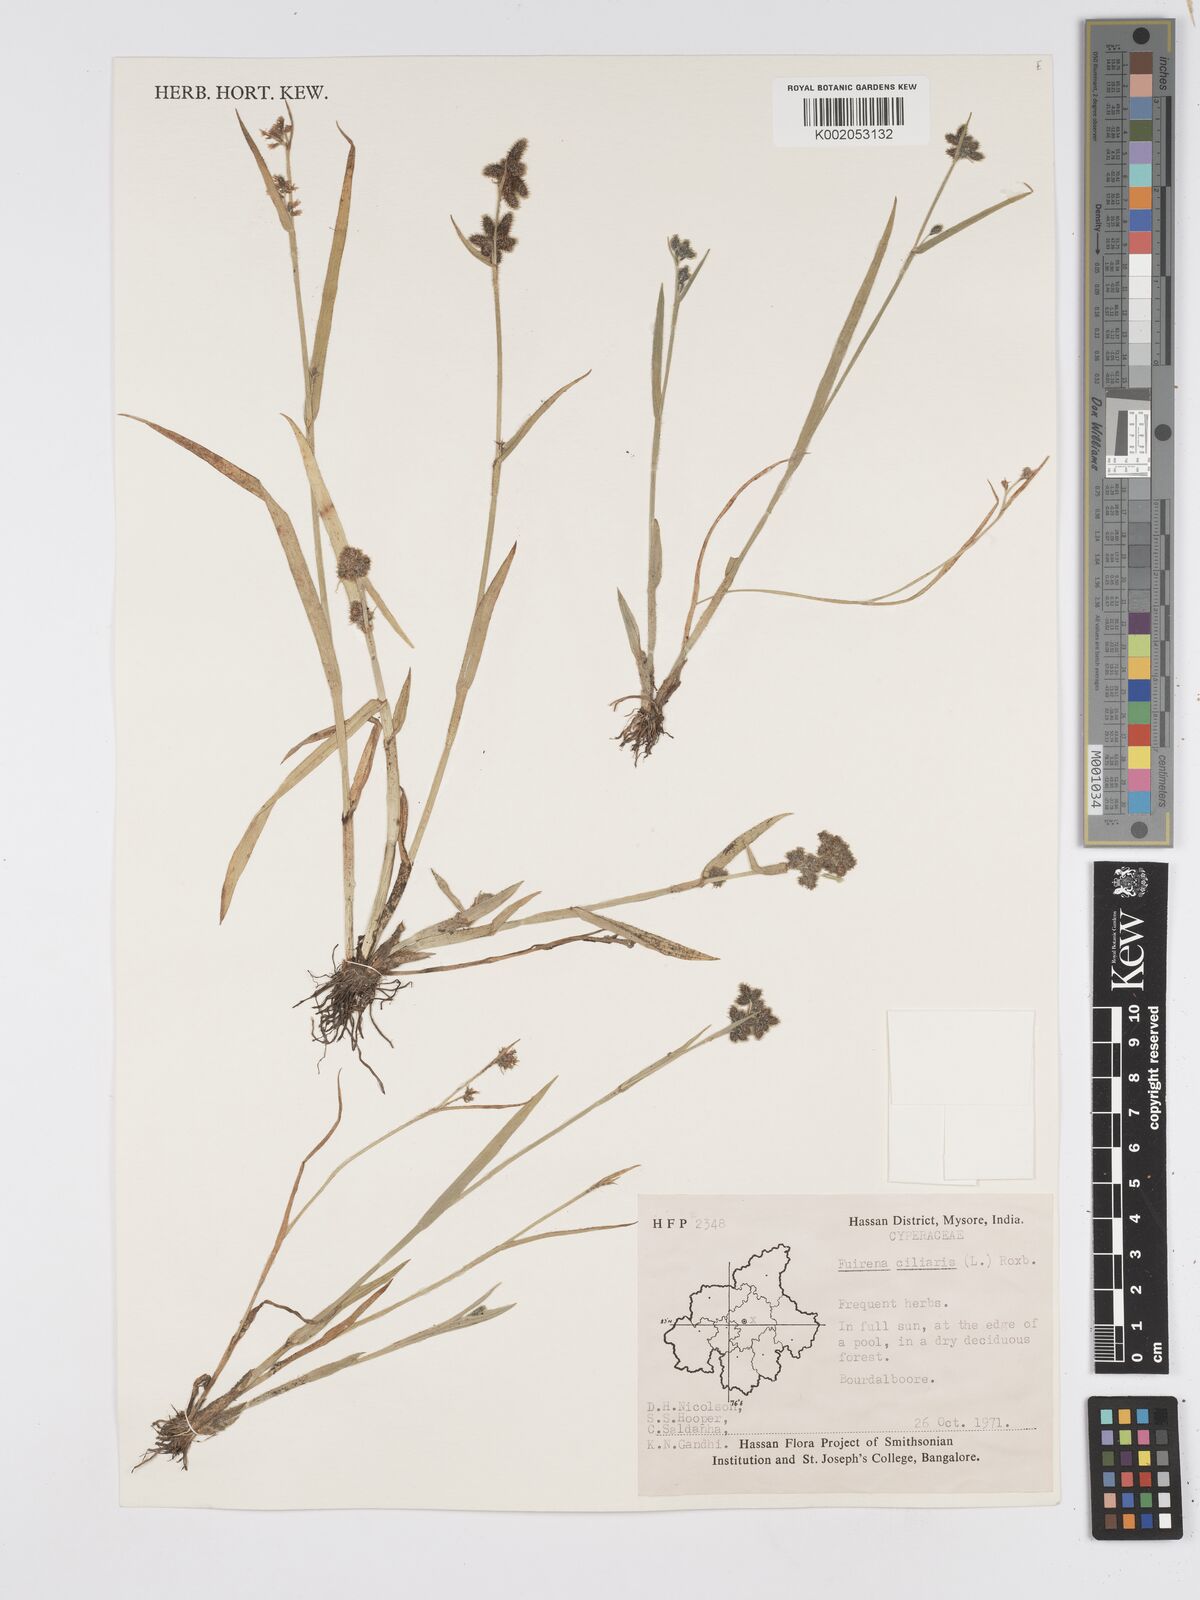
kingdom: Plantae
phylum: Tracheophyta
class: Liliopsida
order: Poales
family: Cyperaceae
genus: Fuirena
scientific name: Fuirena ciliaris
